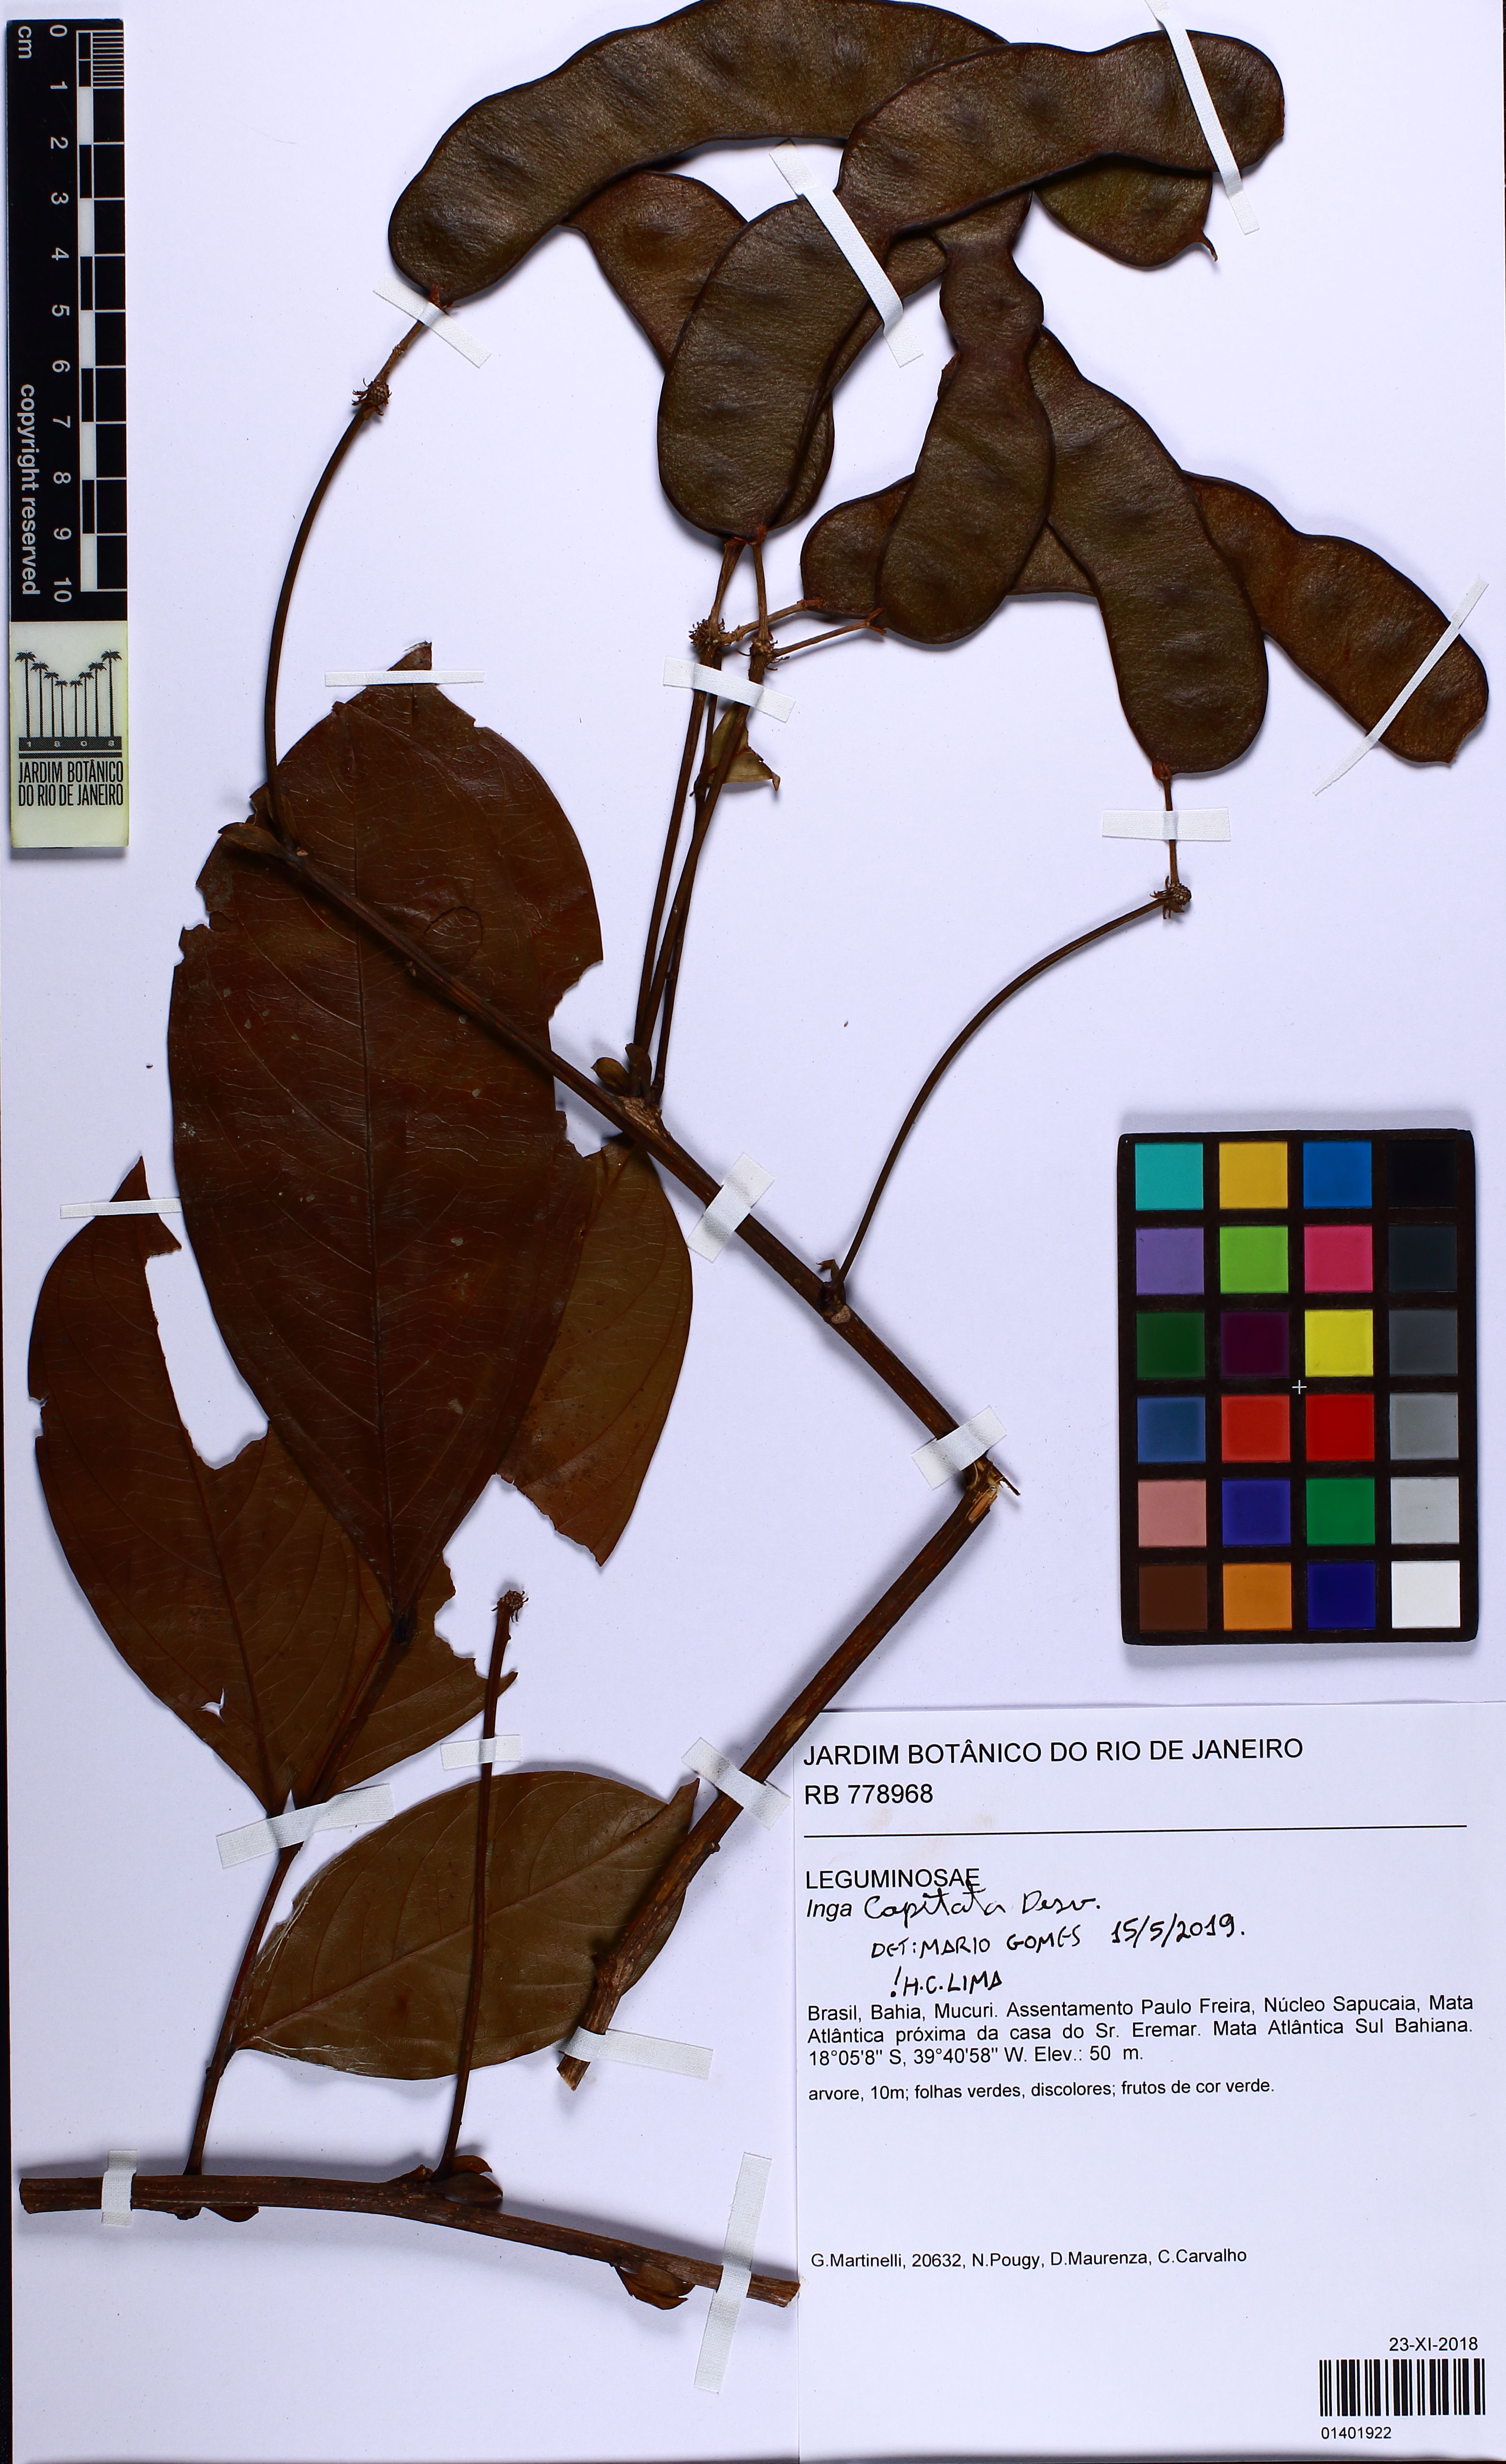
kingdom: Plantae
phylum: Tracheophyta
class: Magnoliopsida
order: Fabales
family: Fabaceae
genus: Inga
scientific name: Inga capitata
